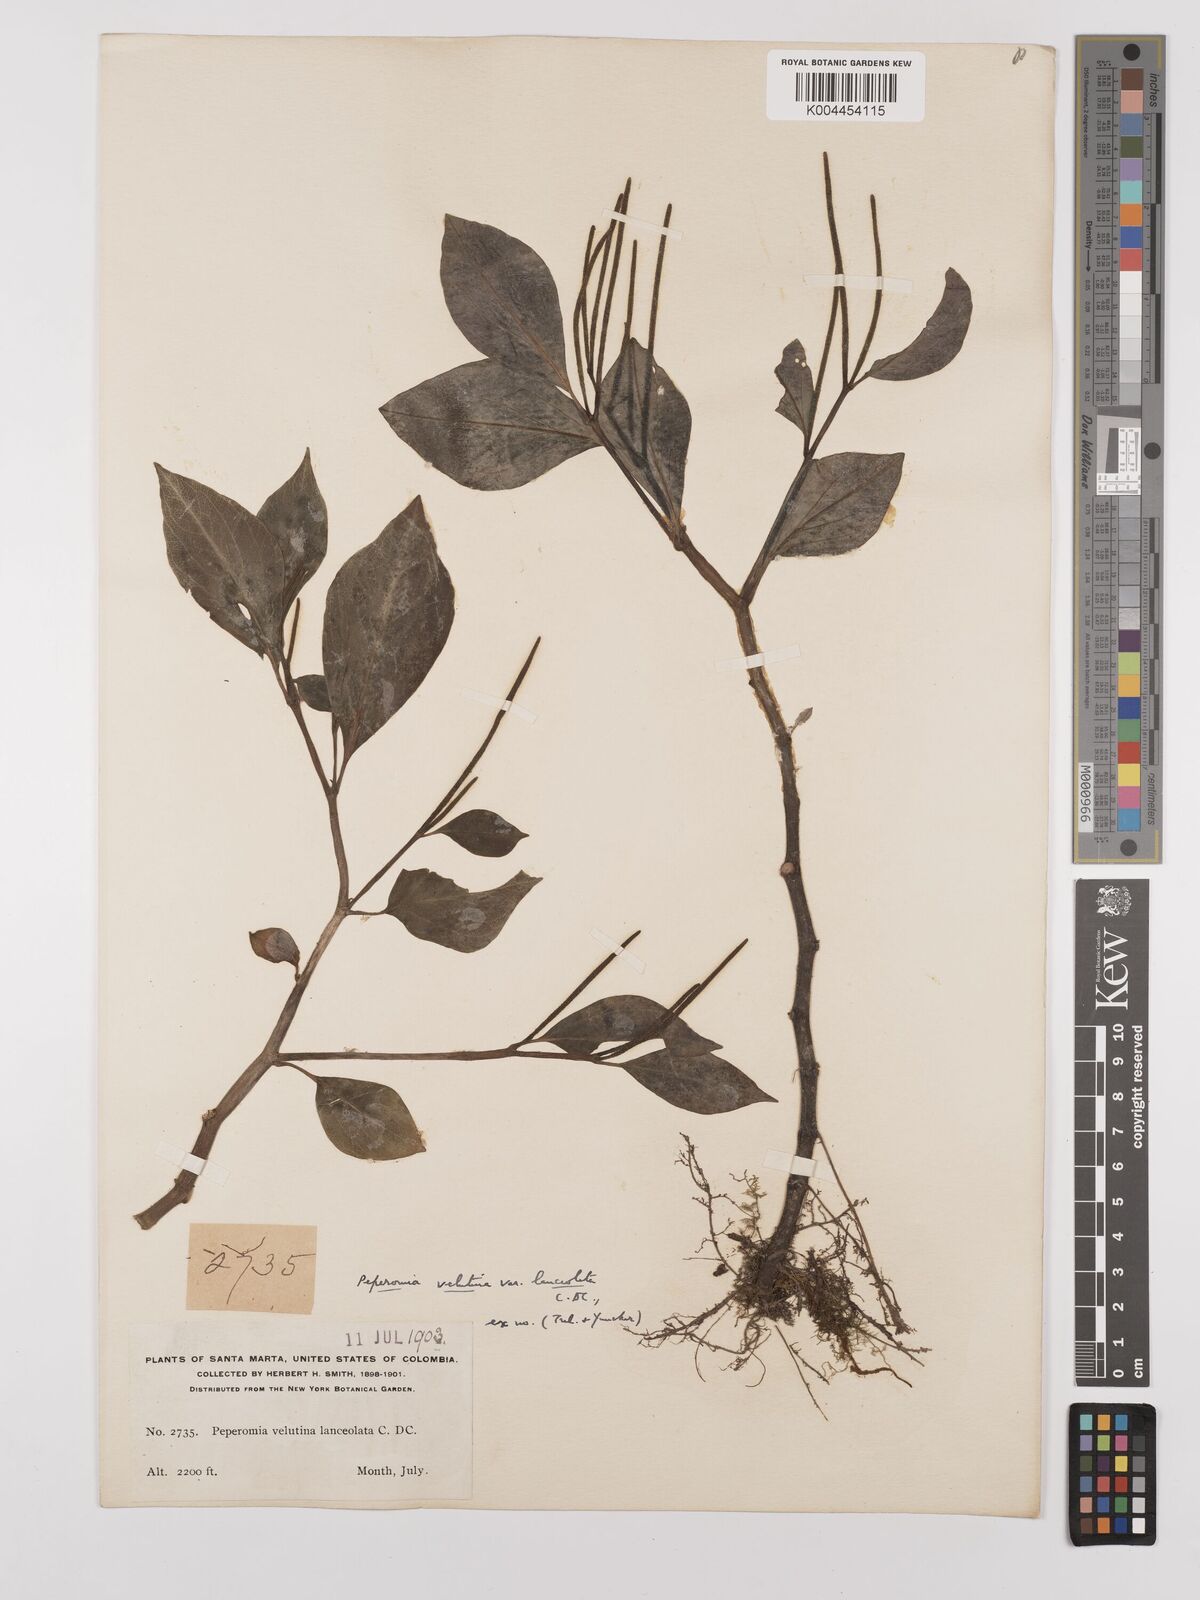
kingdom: Plantae
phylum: Tracheophyta
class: Magnoliopsida
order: Piperales
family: Piperaceae
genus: Peperomia
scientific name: Peperomia
